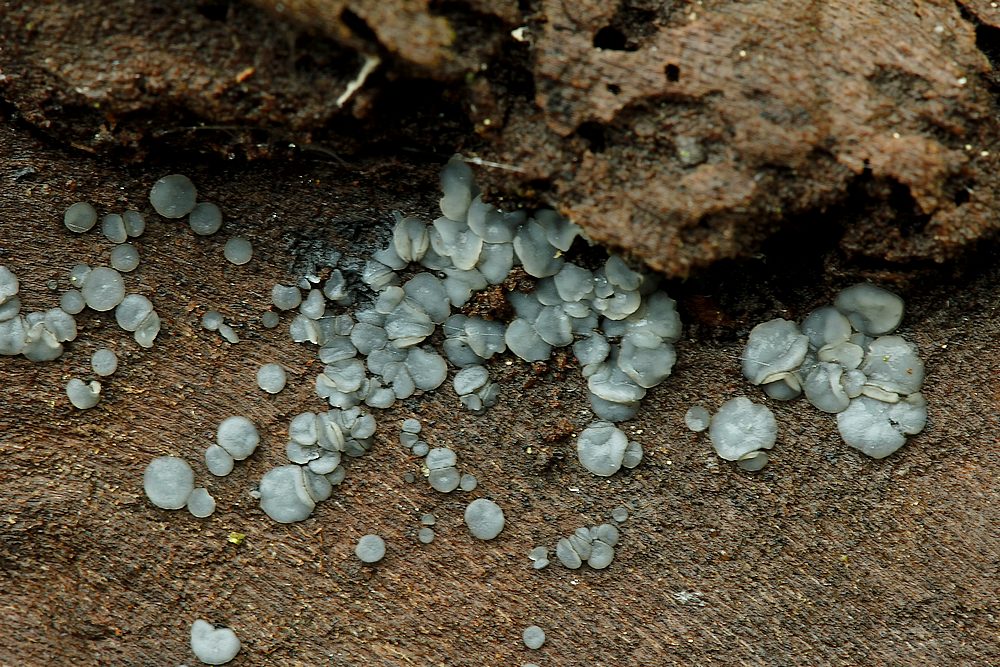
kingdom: Fungi
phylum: Ascomycota
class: Leotiomycetes
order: Helotiales
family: Mollisiaceae
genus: Mollisia
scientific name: Mollisia cinerea
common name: almindelig gråskive
